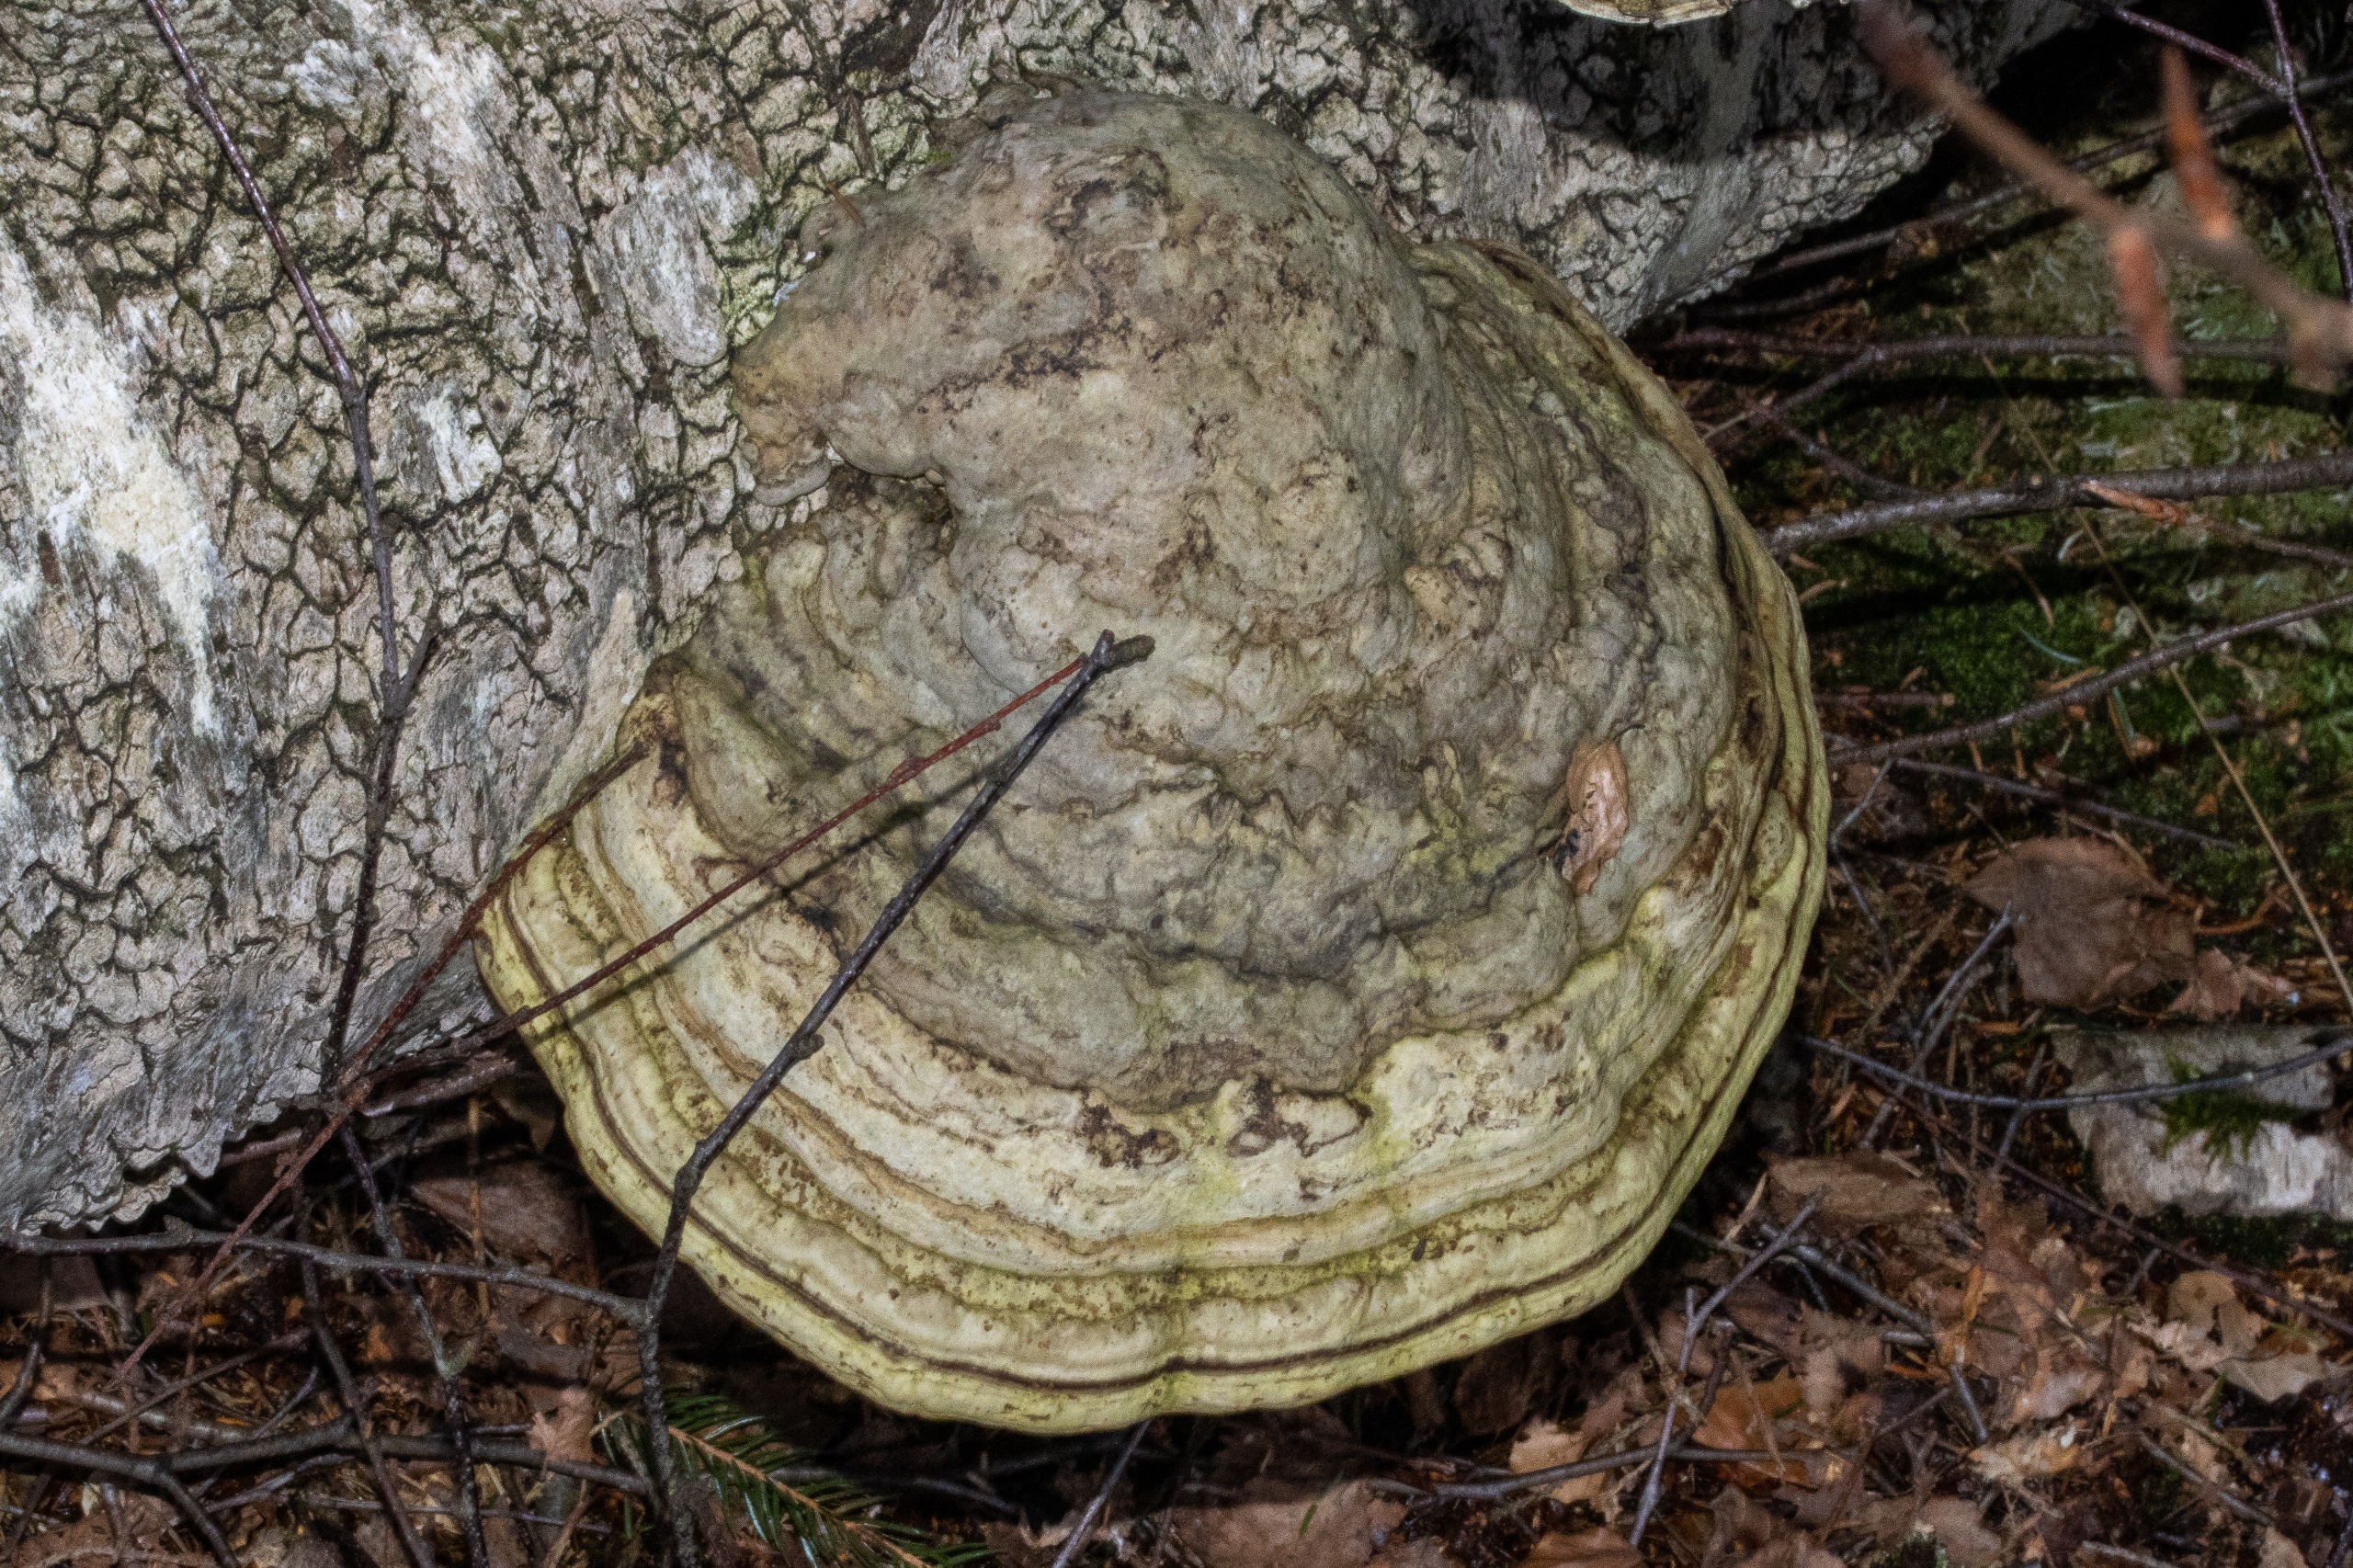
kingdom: Fungi
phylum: Basidiomycota
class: Agaricomycetes
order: Polyporales
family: Polyporaceae
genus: Fomes
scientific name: Fomes fomentarius
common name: Tøndersvamp
